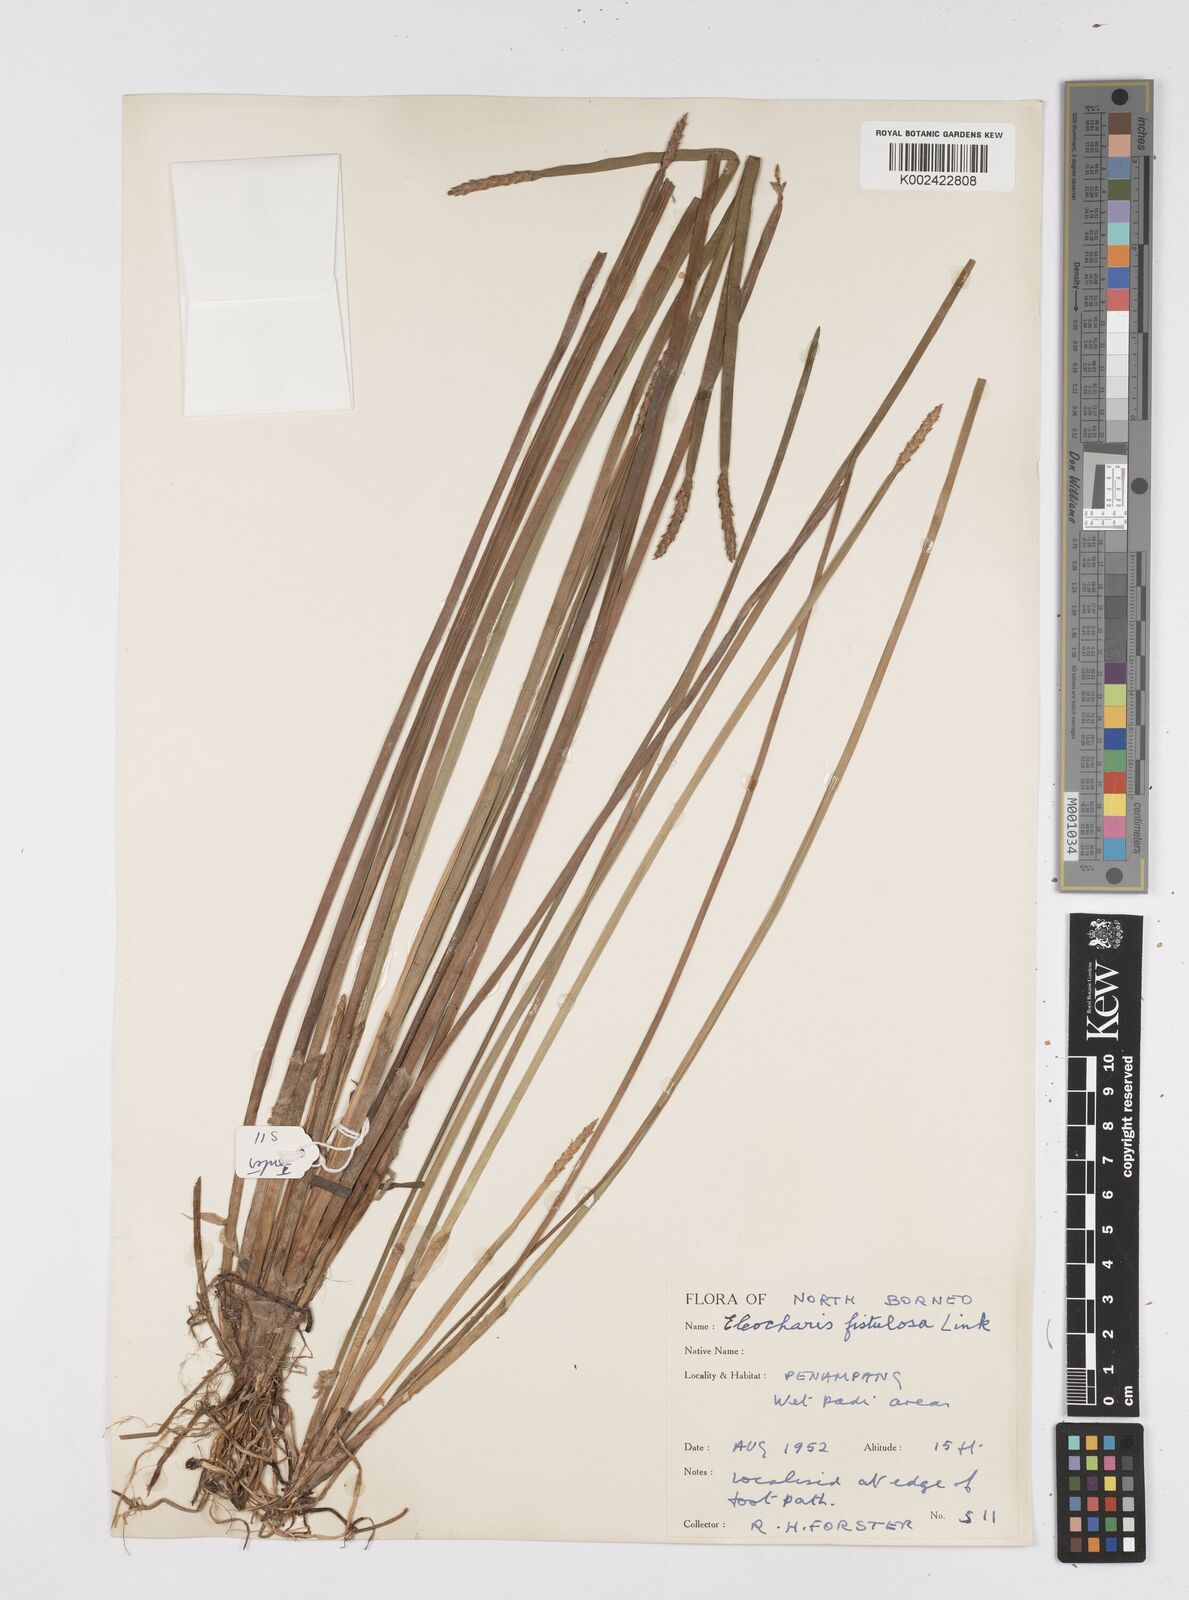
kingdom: Plantae
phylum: Tracheophyta
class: Liliopsida
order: Poales
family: Cyperaceae
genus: Eleocharis
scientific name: Eleocharis acutangula
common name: Acute spikerush
